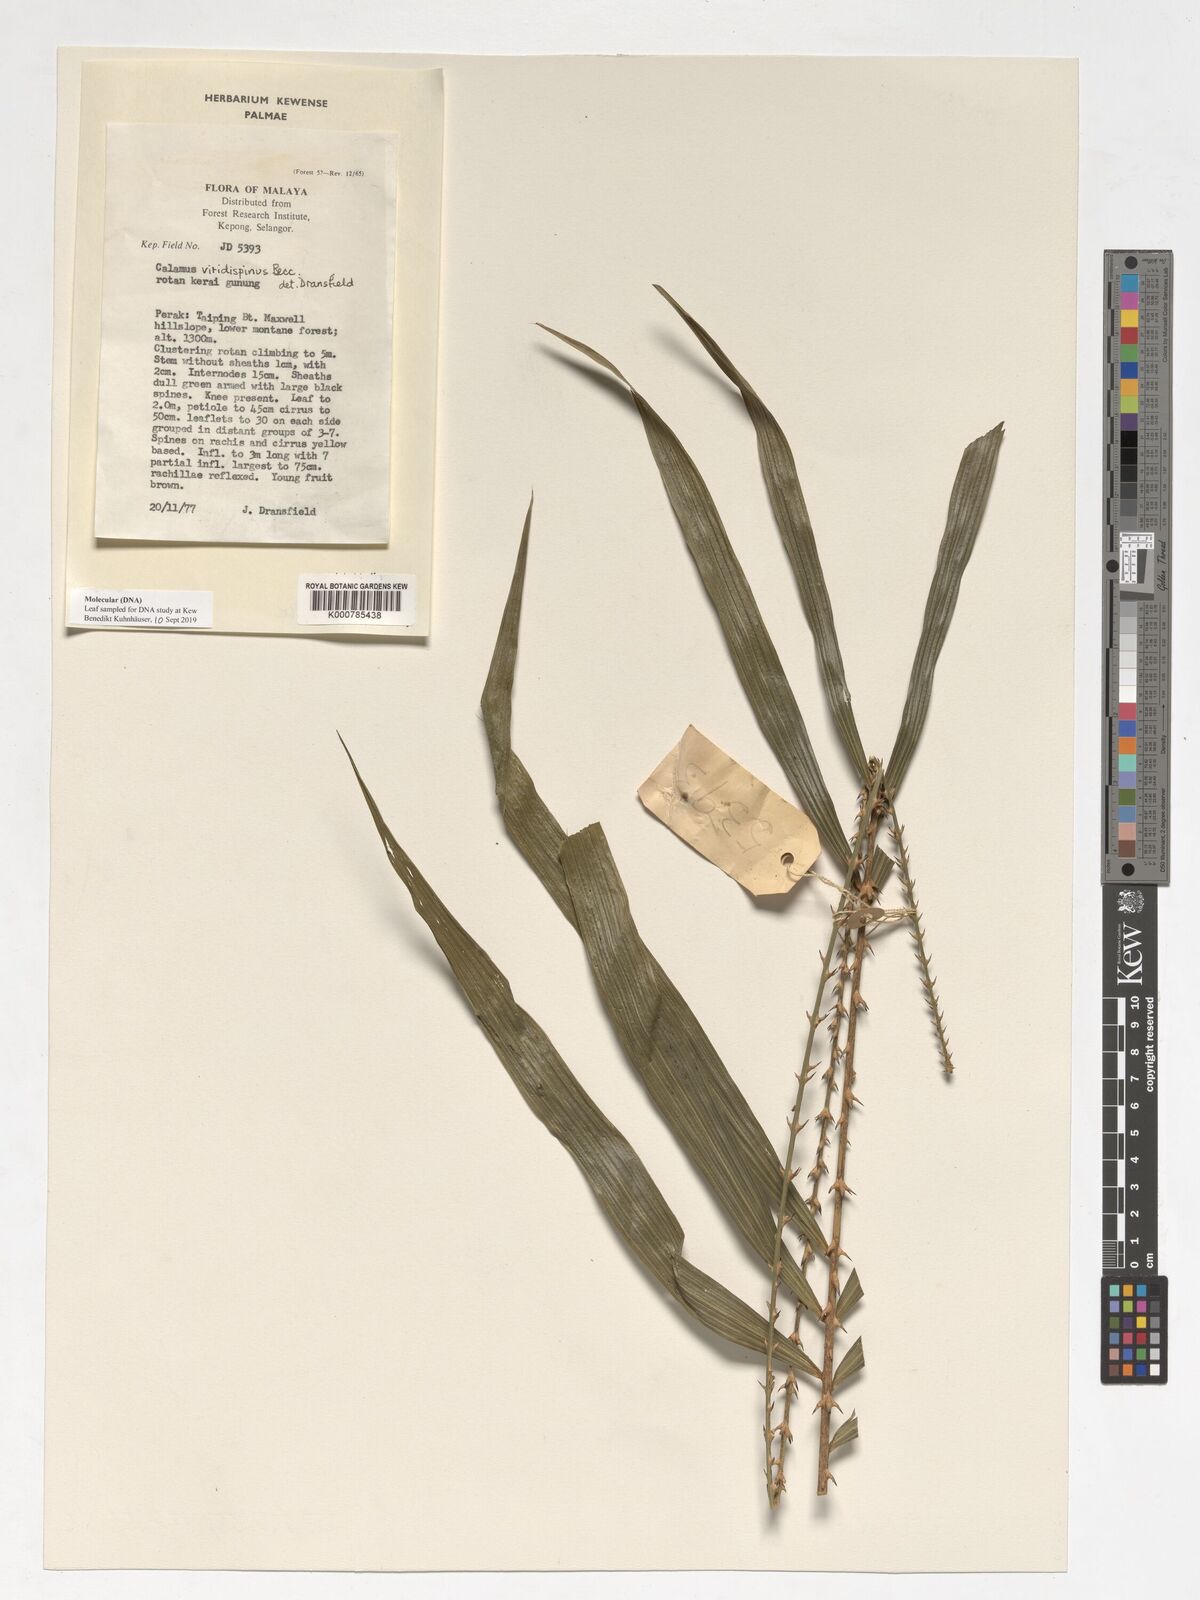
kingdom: Plantae
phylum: Tracheophyta
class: Liliopsida
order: Arecales
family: Arecaceae
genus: Calamus
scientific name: Calamus helferianus
